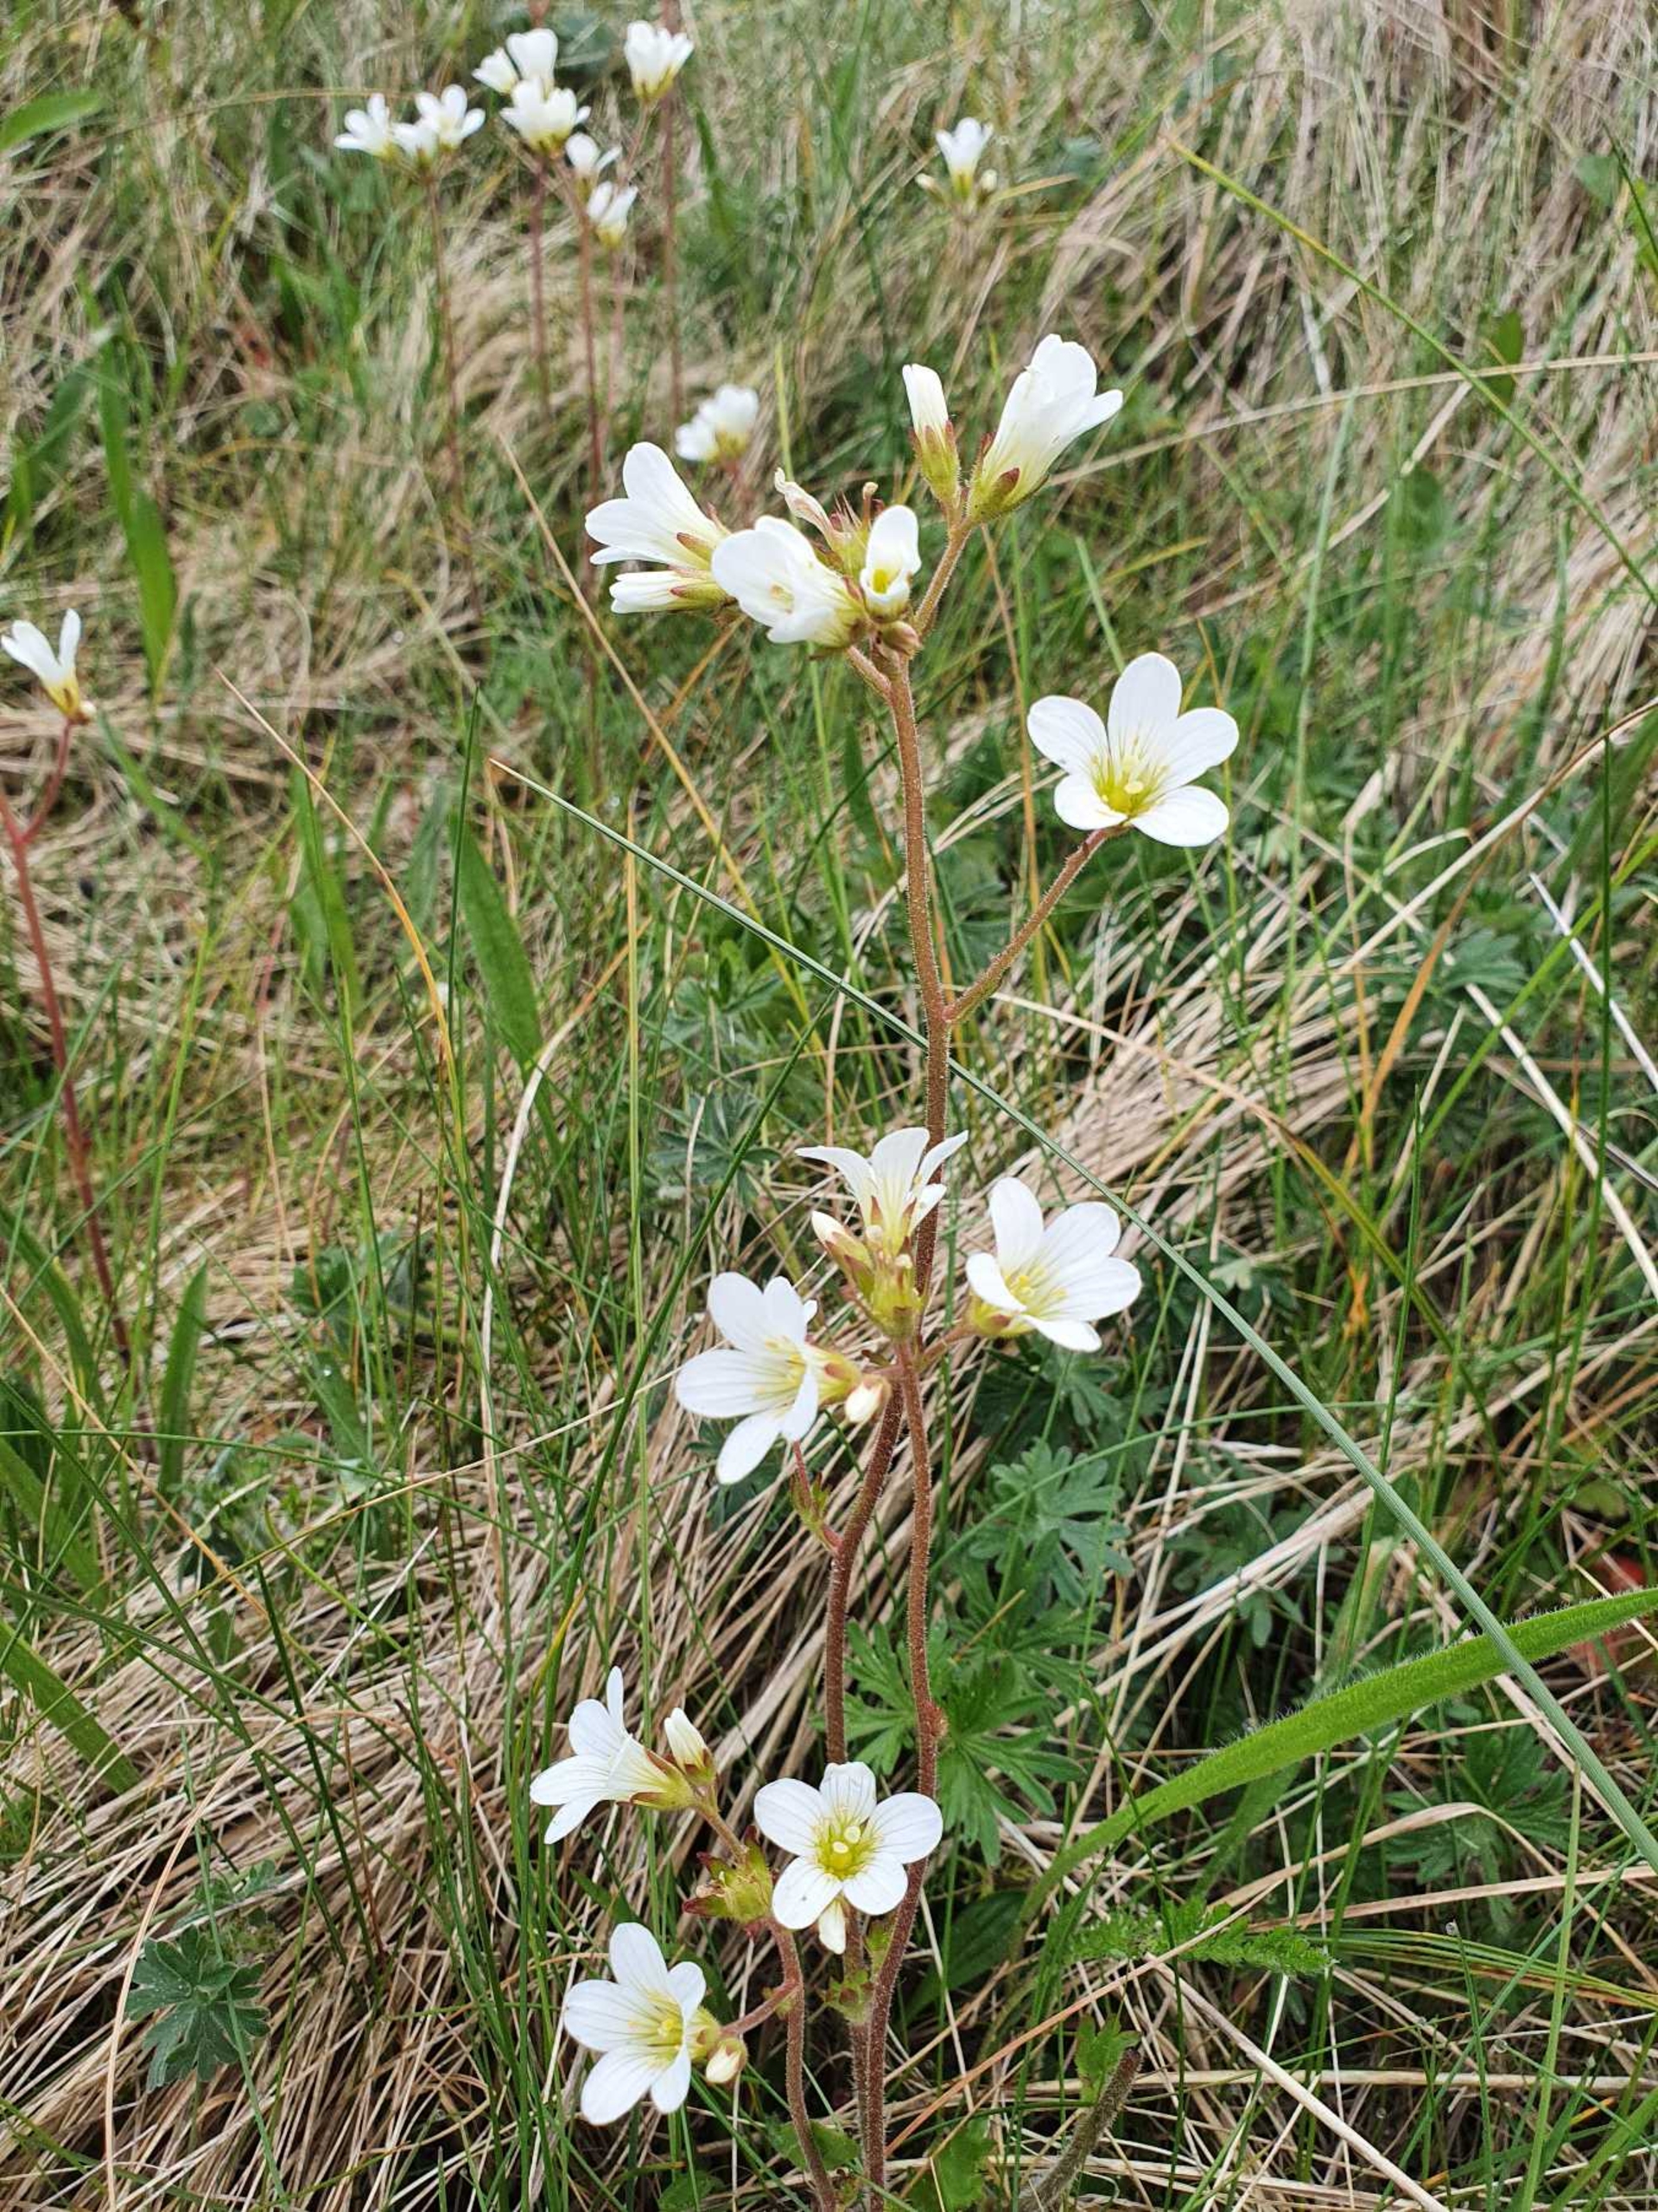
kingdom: Plantae
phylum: Tracheophyta
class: Magnoliopsida
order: Saxifragales
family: Saxifragaceae
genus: Saxifraga
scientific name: Saxifraga granulata
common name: Kornet stenbræk
